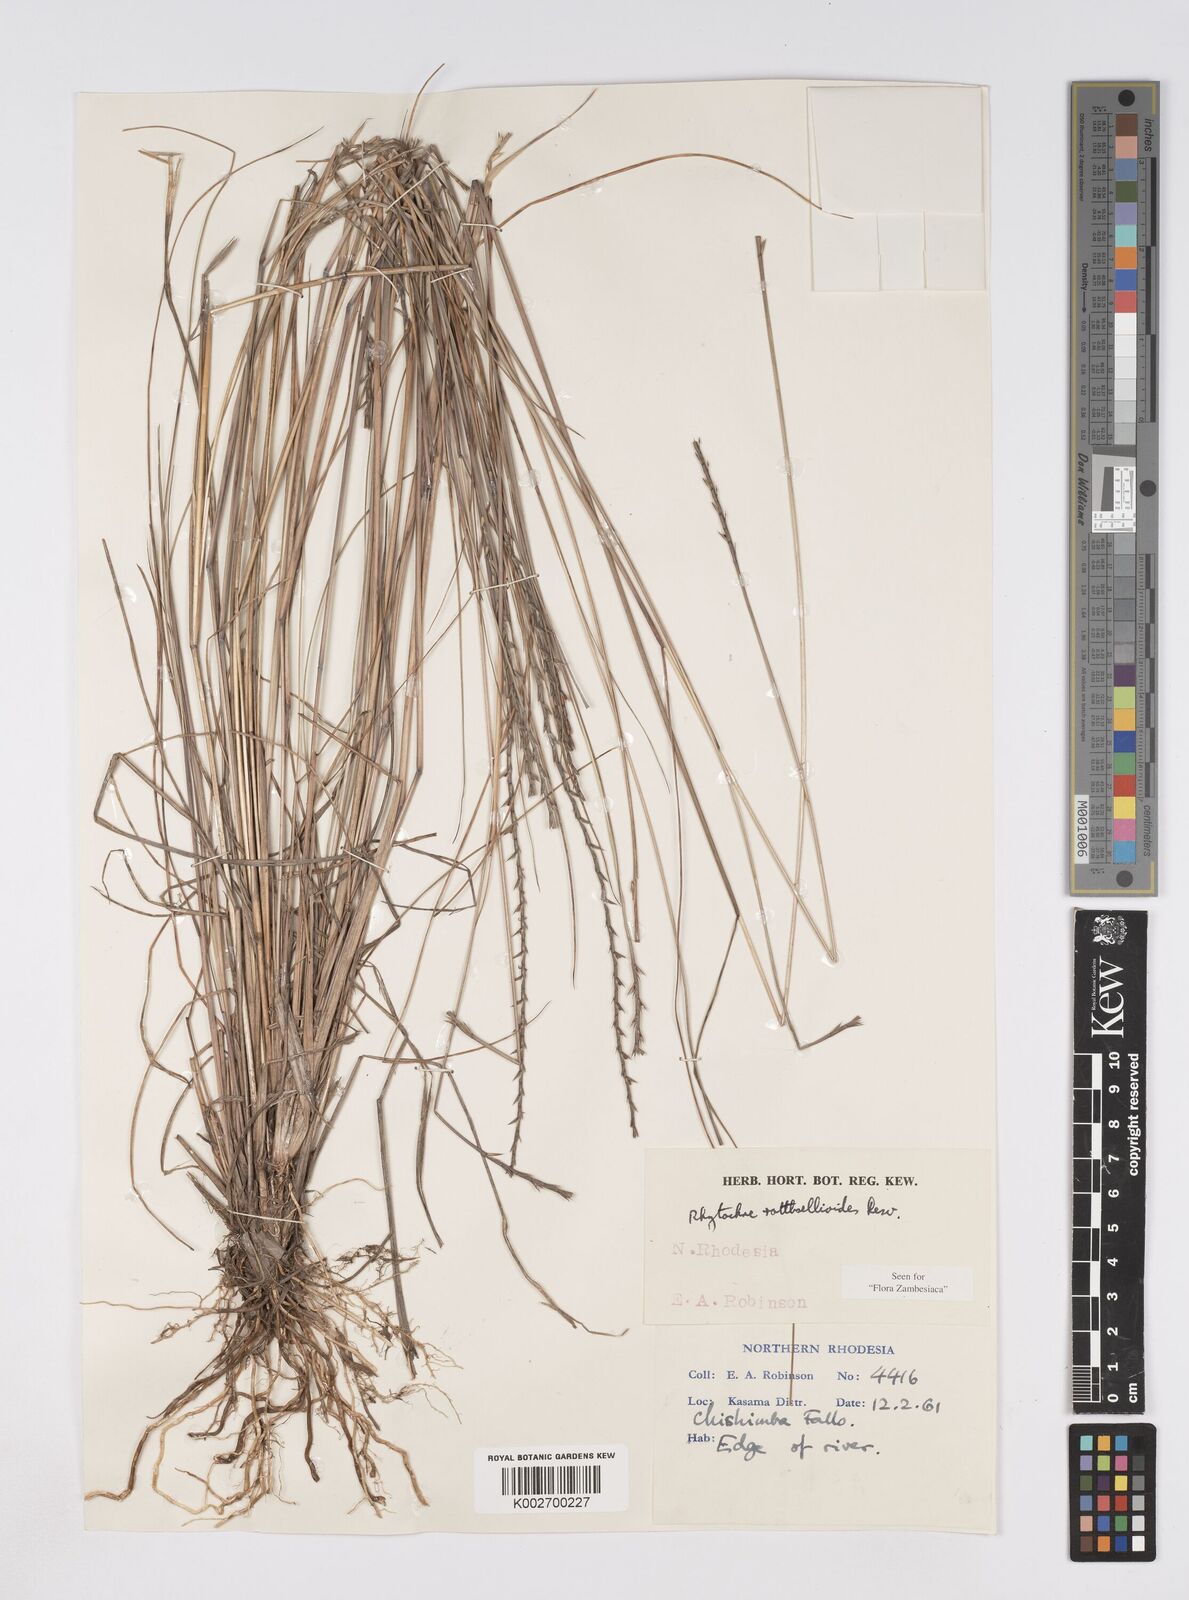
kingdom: Plantae
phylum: Tracheophyta
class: Liliopsida
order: Poales
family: Poaceae
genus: Rhytachne
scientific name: Rhytachne rottboellioides
